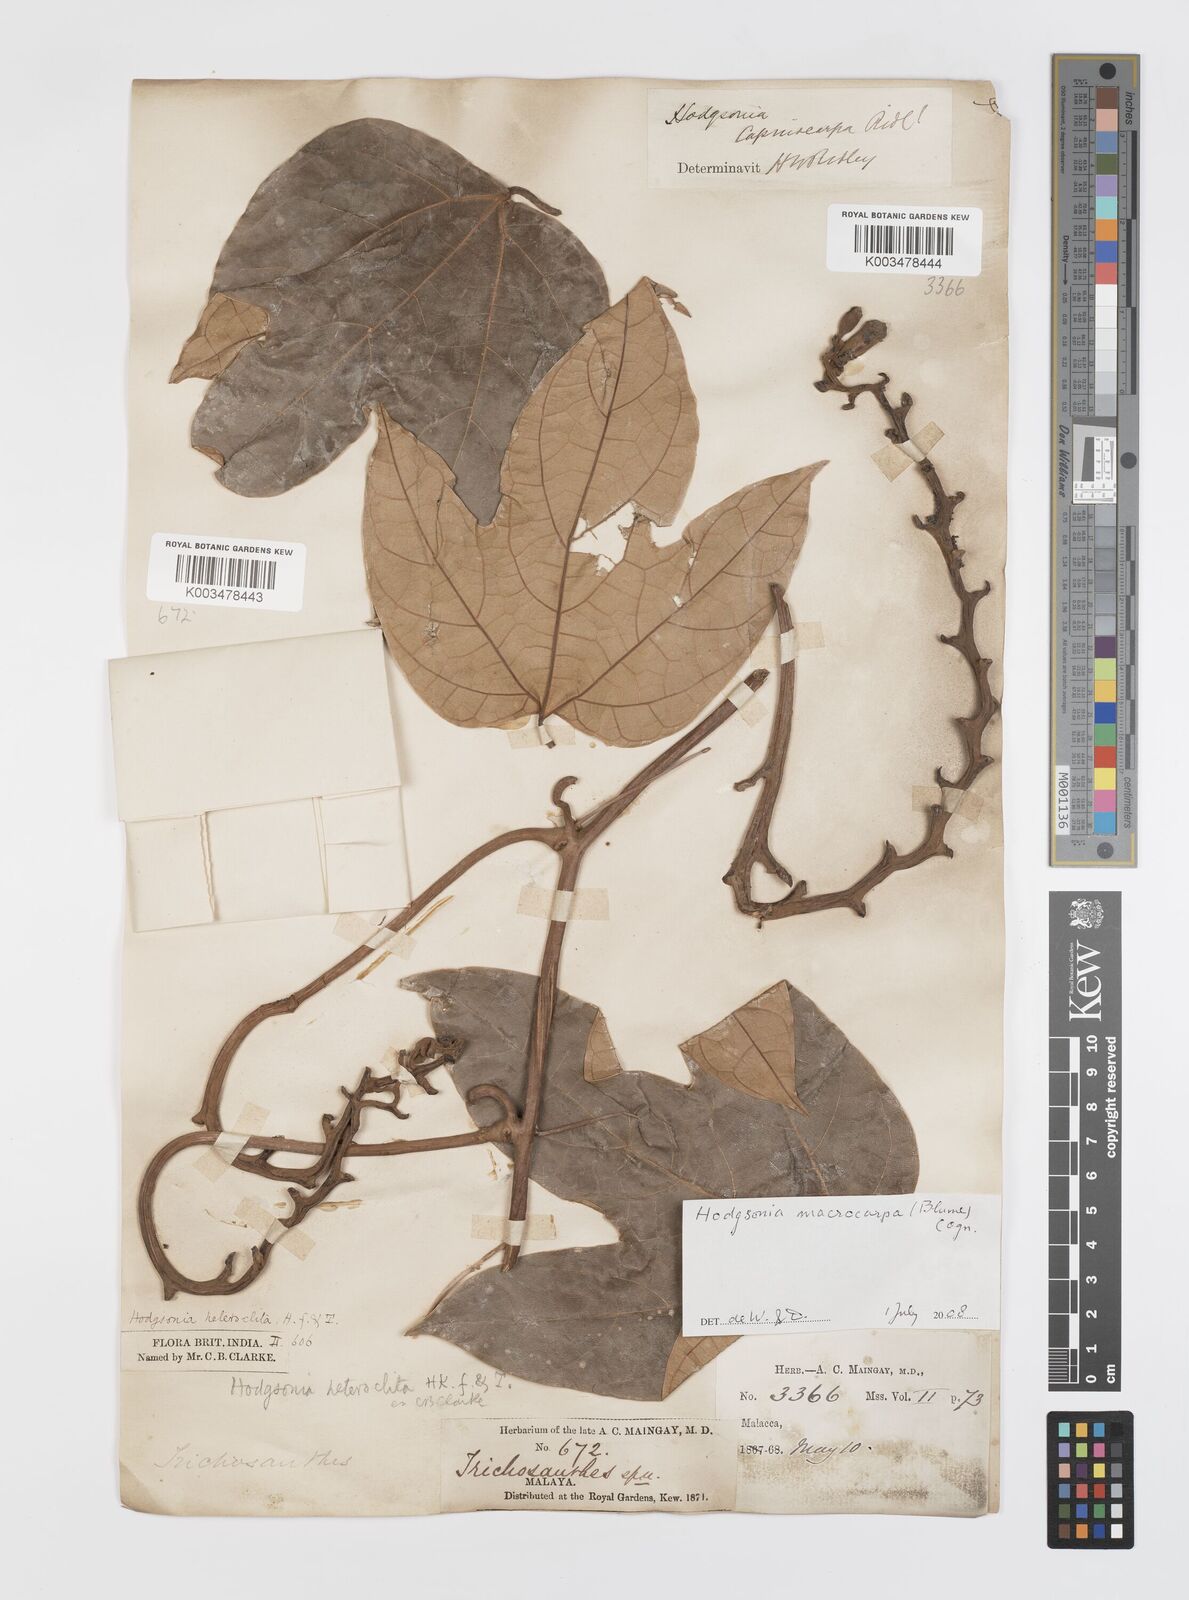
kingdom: Plantae
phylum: Tracheophyta
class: Magnoliopsida
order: Cucurbitales
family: Cucurbitaceae
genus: Hodgsonia
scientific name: Hodgsonia macrocarpa
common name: Chinese lardfruit
